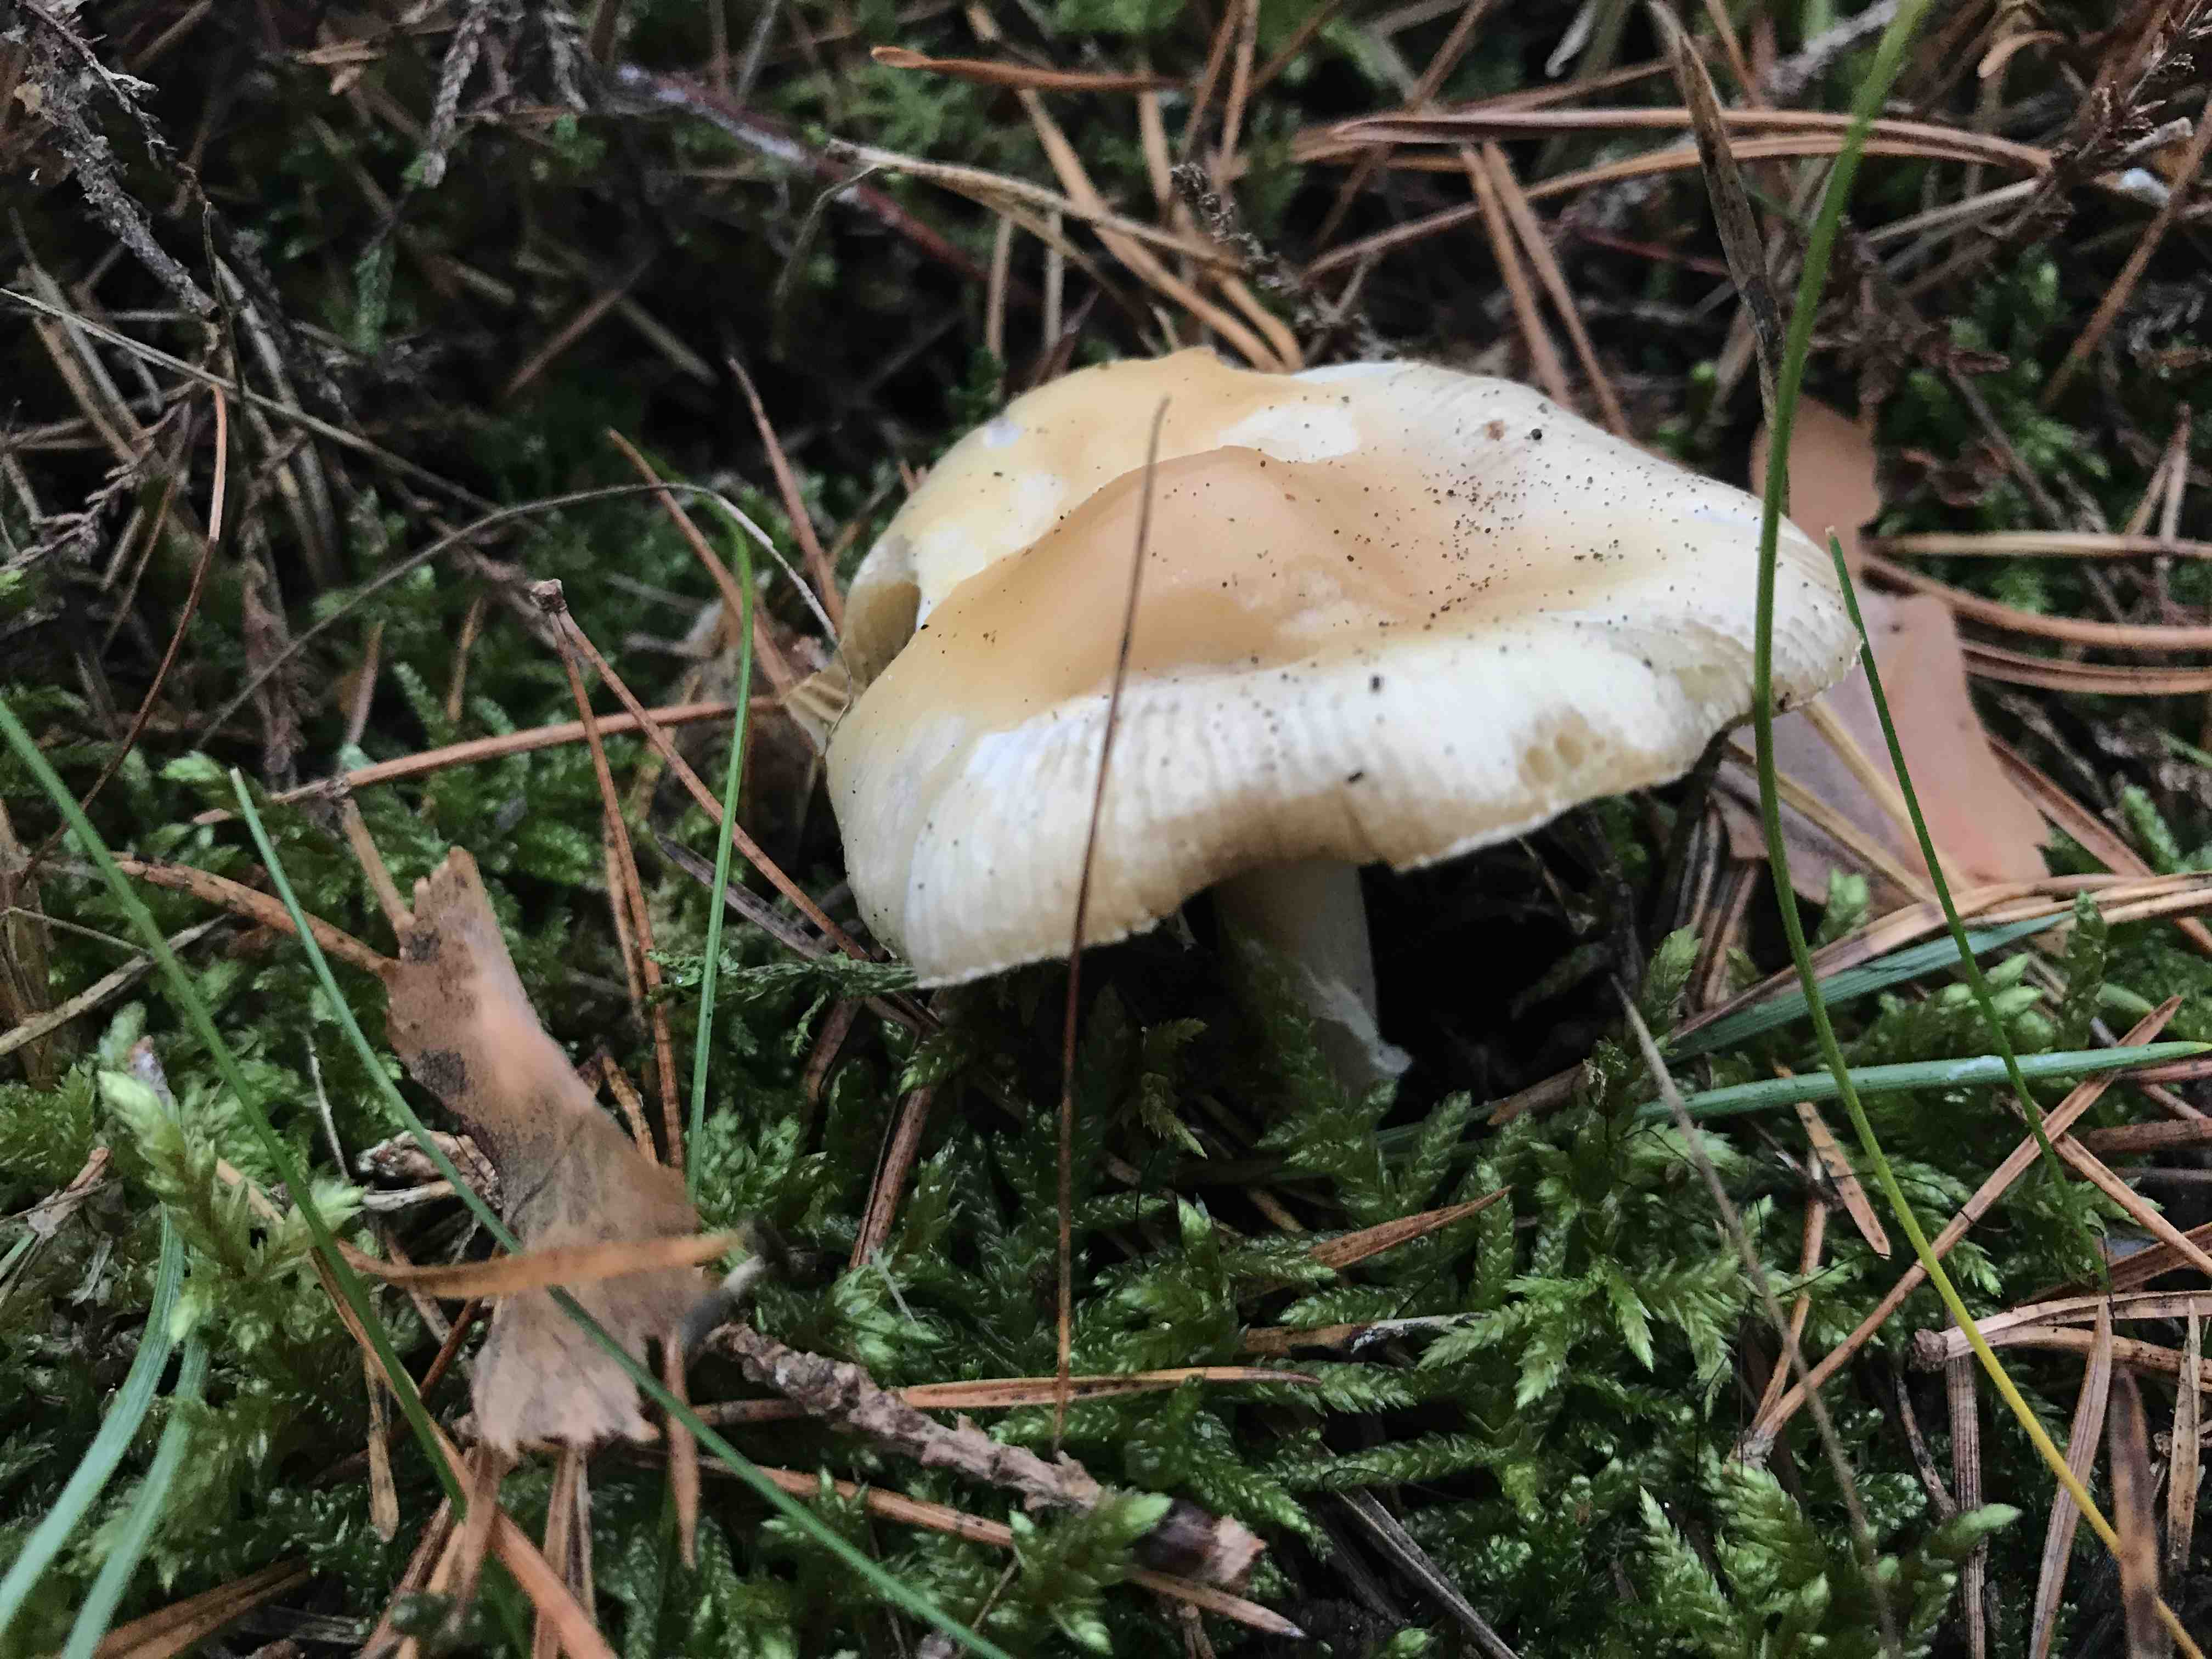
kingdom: Fungi
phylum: Basidiomycota
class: Agaricomycetes
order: Agaricales
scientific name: Agaricales
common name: champignonordenen
